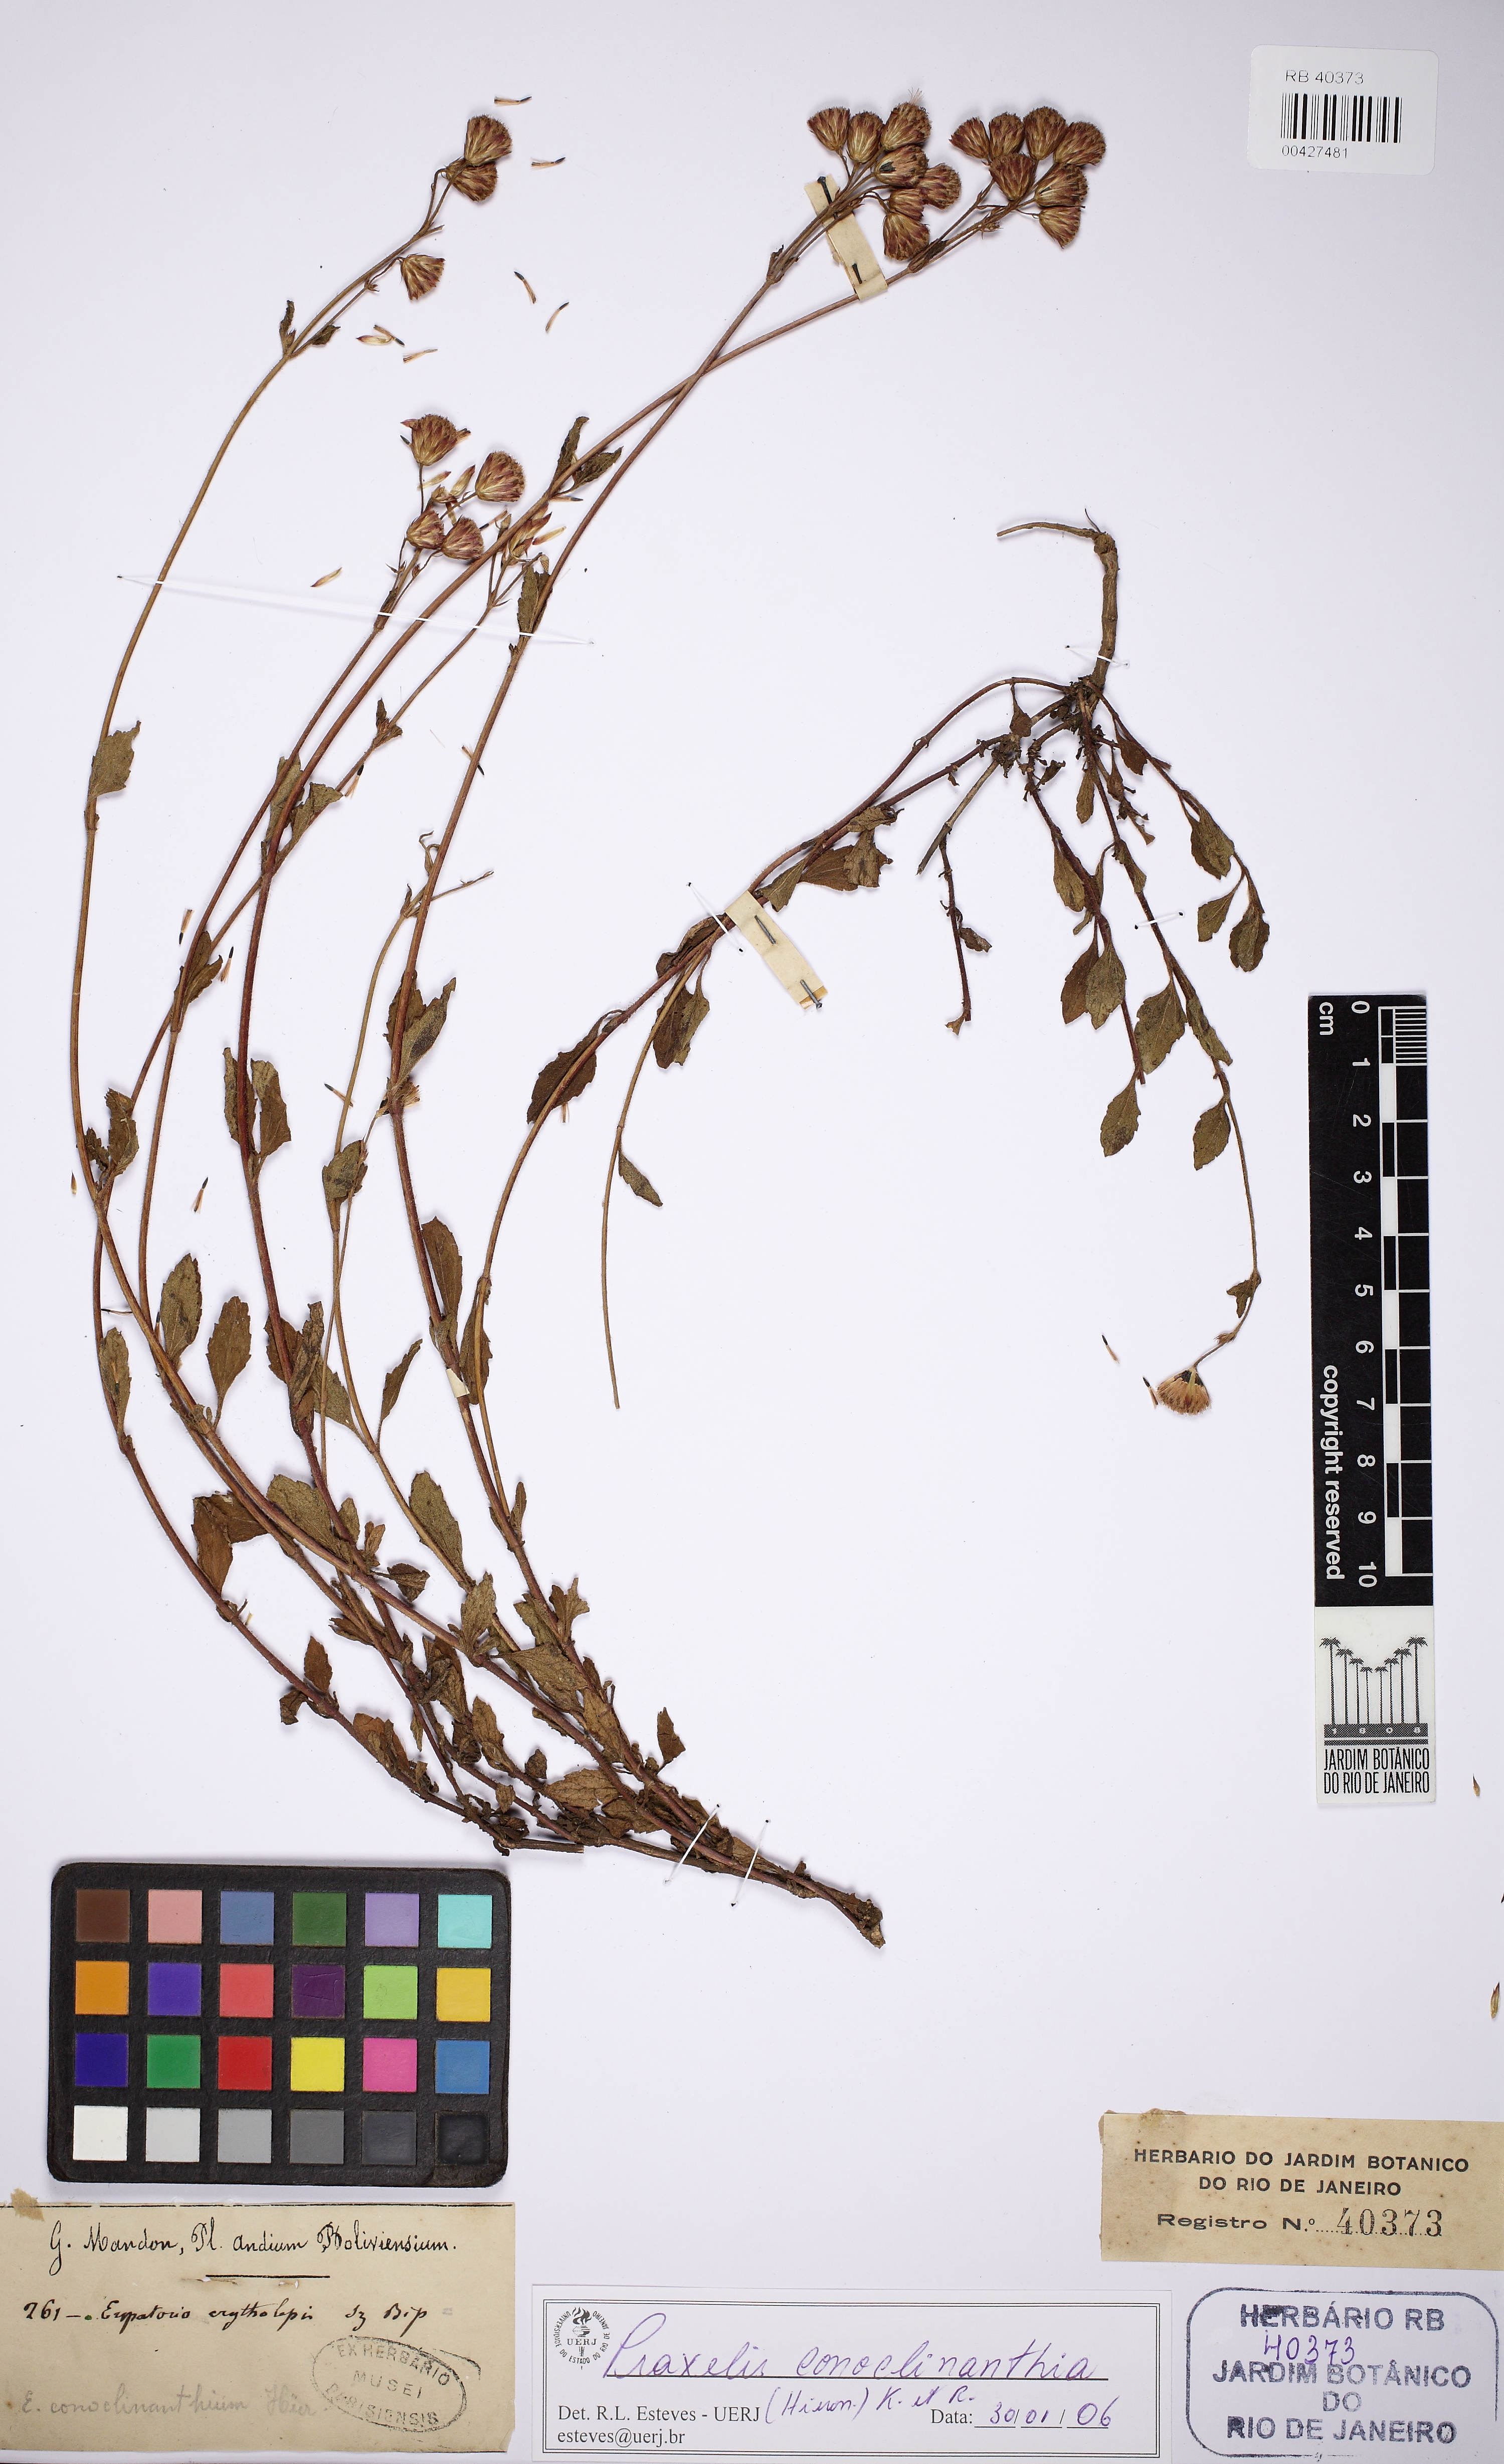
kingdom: Plantae
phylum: Tracheophyta
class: Magnoliopsida
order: Asterales
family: Asteraceae
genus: Pterocaulon
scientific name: Pterocaulon lorentzii
